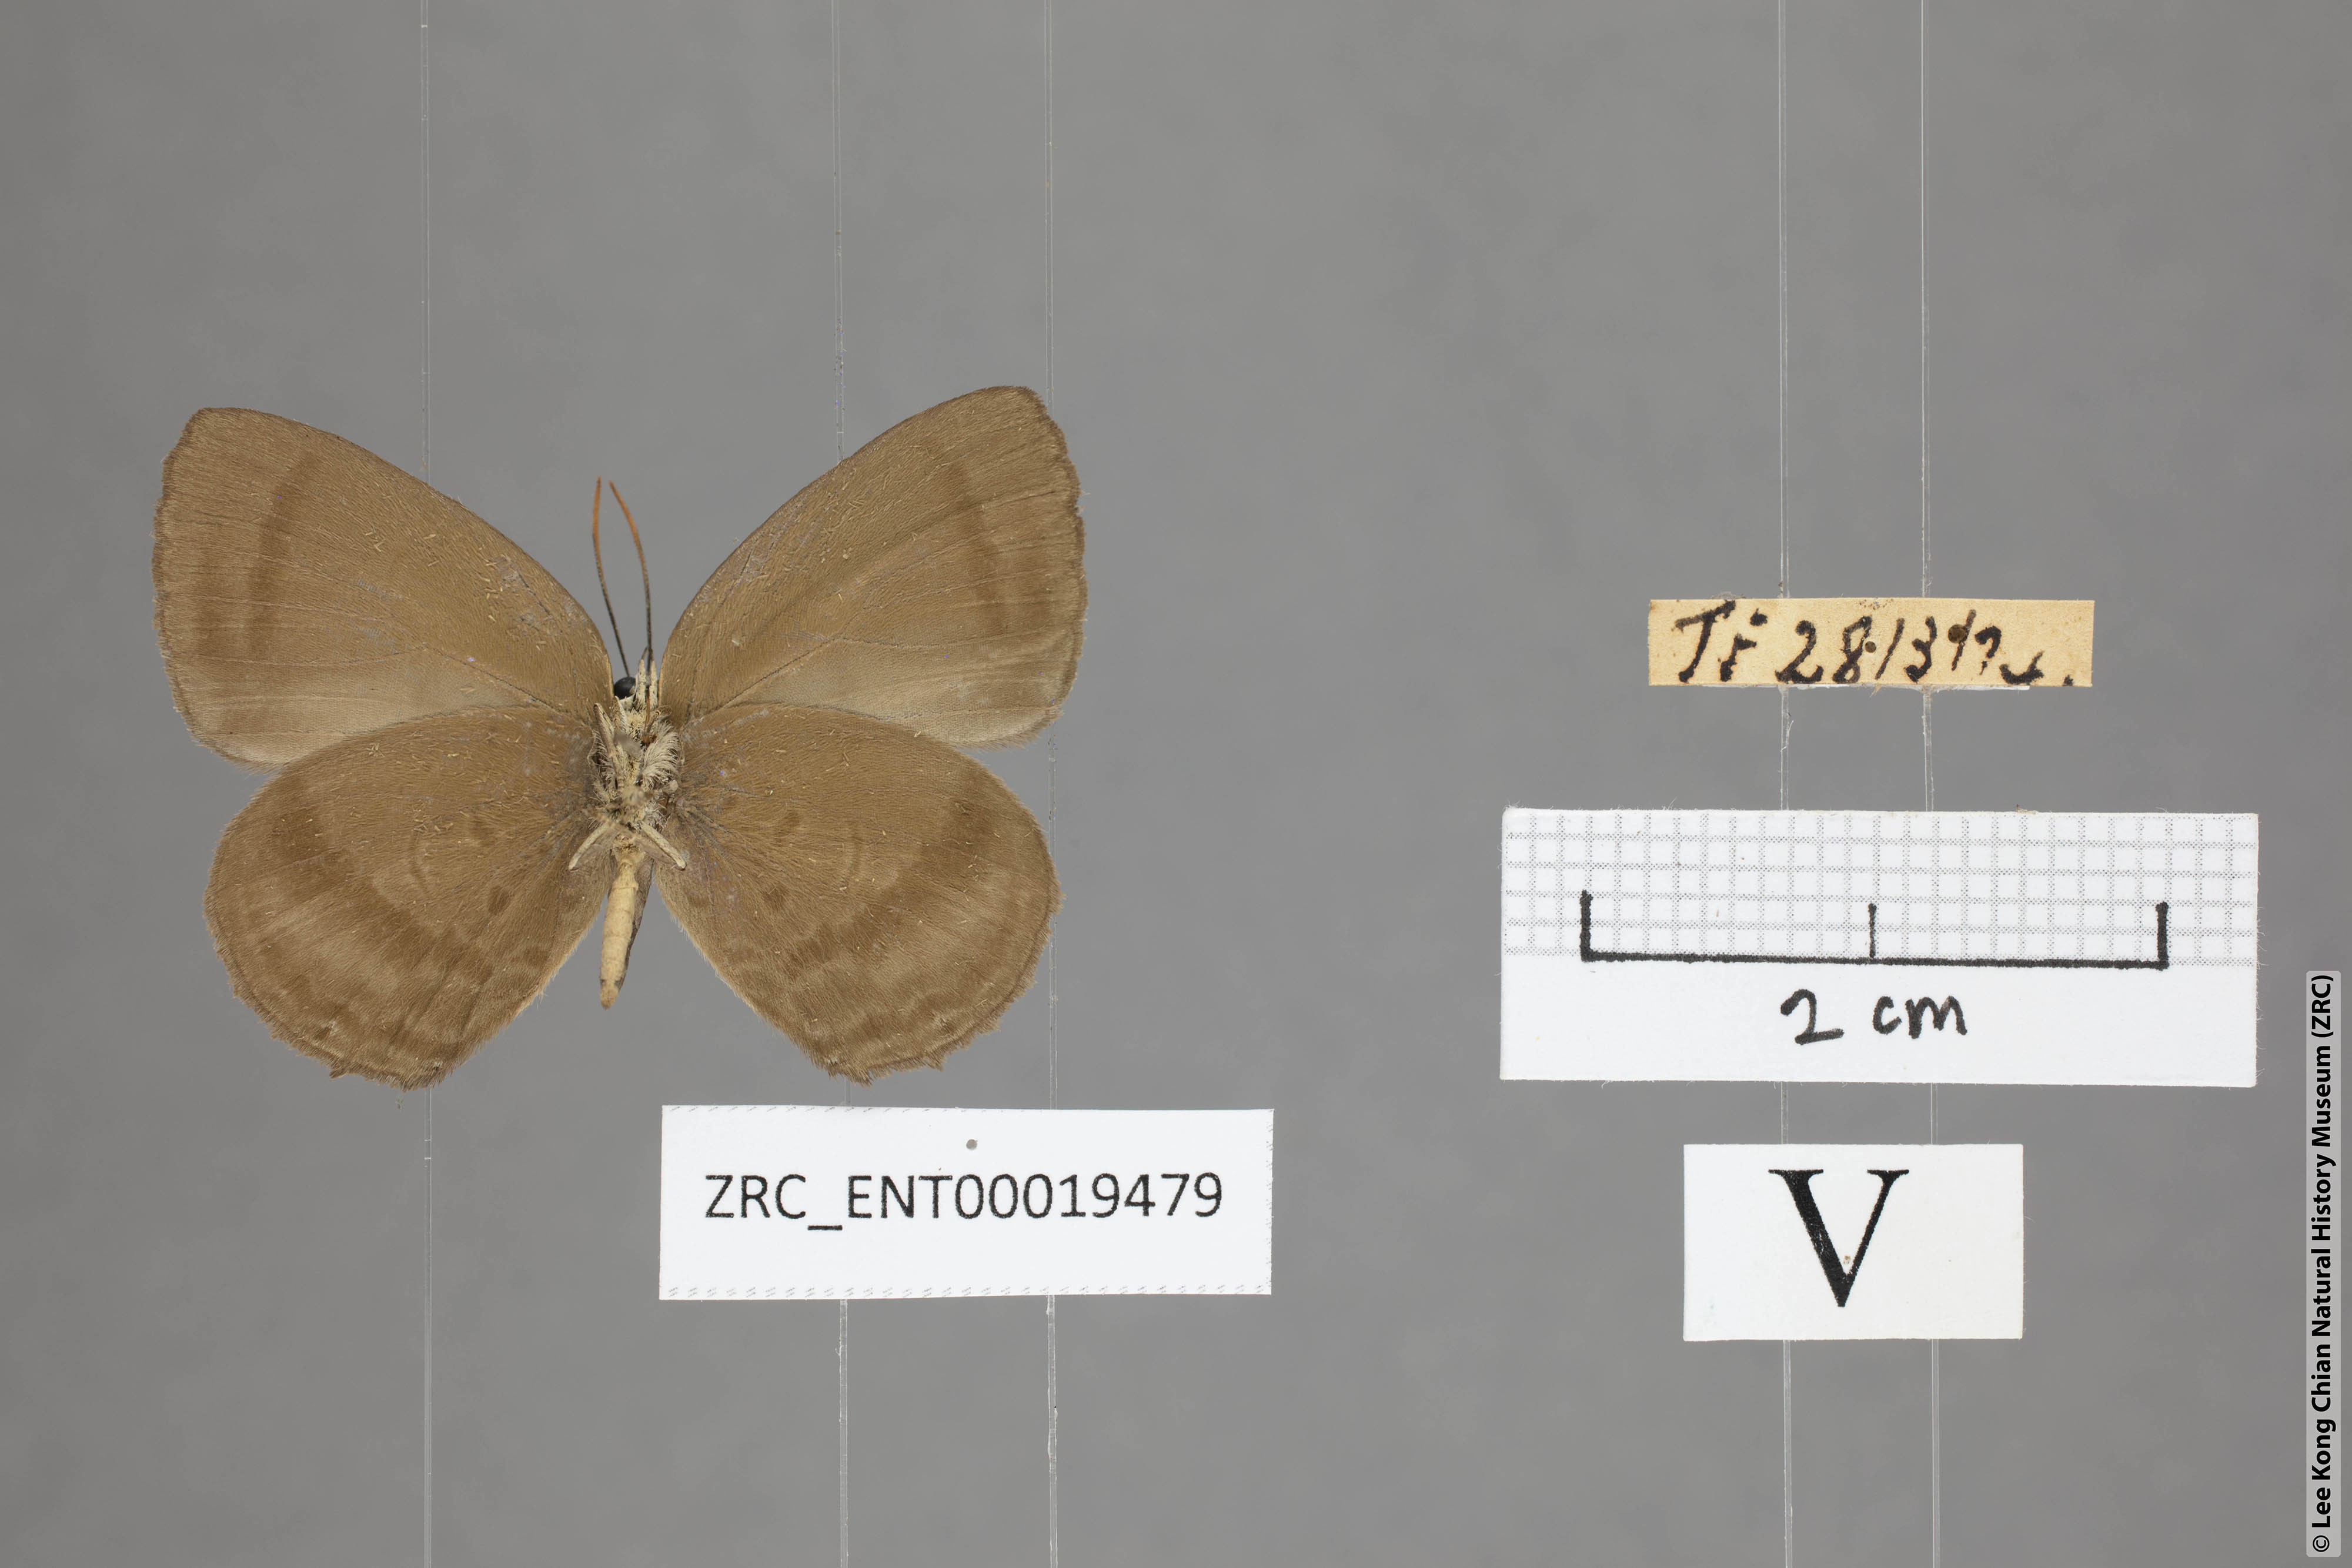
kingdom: Animalia
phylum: Arthropoda
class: Insecta
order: Lepidoptera
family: Lycaenidae
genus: Arhopala
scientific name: Arhopala fulla
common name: Spotless oakblue
